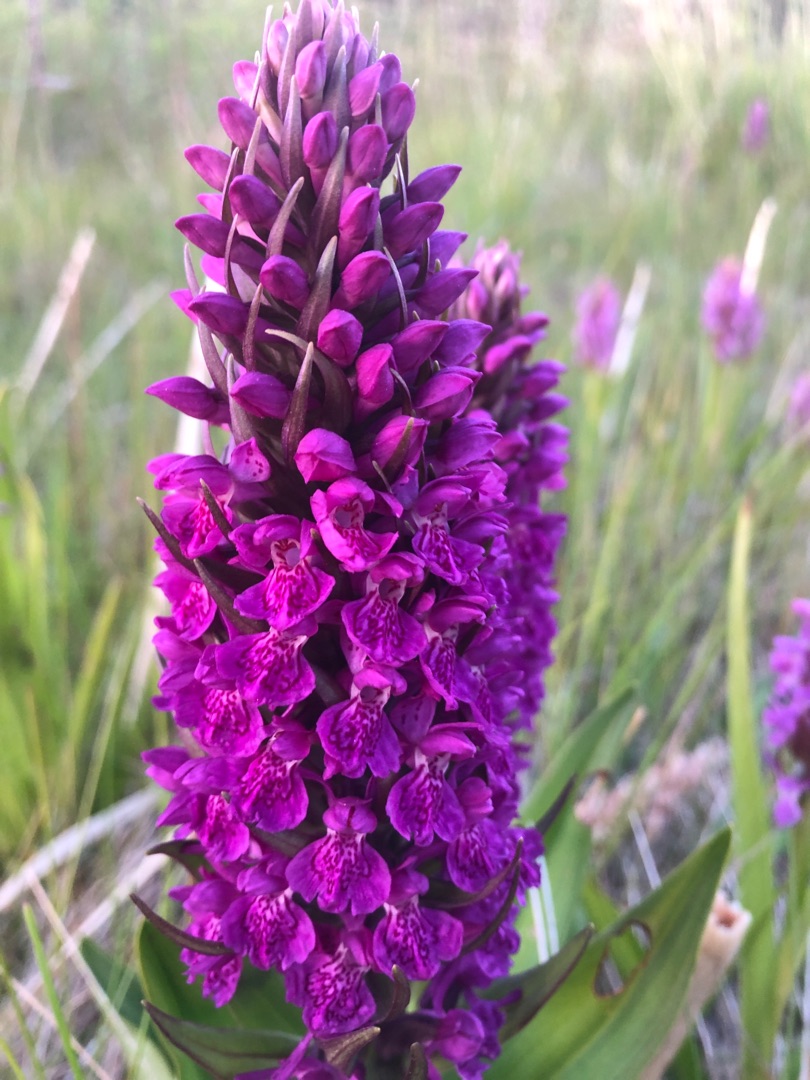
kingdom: Plantae
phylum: Tracheophyta
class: Liliopsida
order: Asparagales
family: Orchidaceae
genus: Dactylorhiza
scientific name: Dactylorhiza majalis
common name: Purpur-gøgeurt
